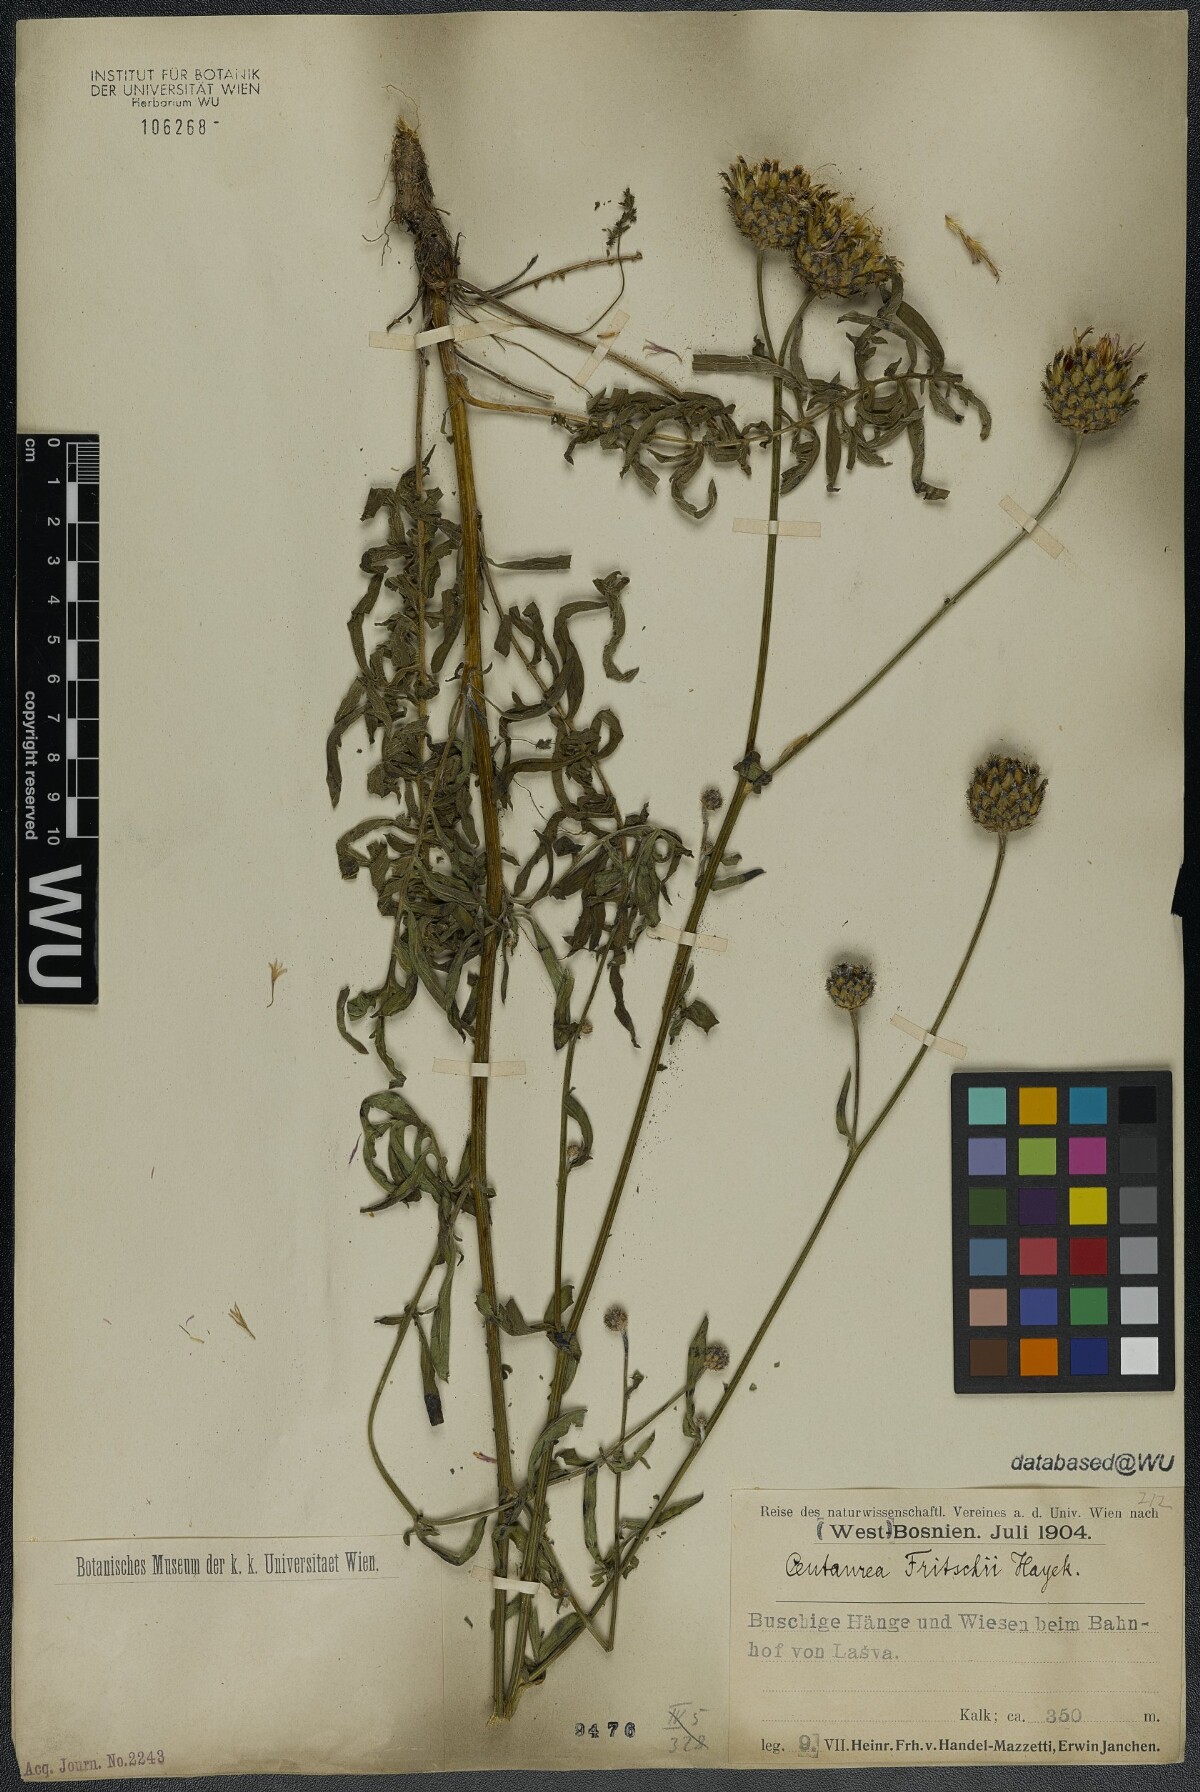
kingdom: Plantae
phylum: Tracheophyta
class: Magnoliopsida
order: Asterales
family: Asteraceae
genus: Centaurea
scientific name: Centaurea scabiosa
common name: Greater knapweed
